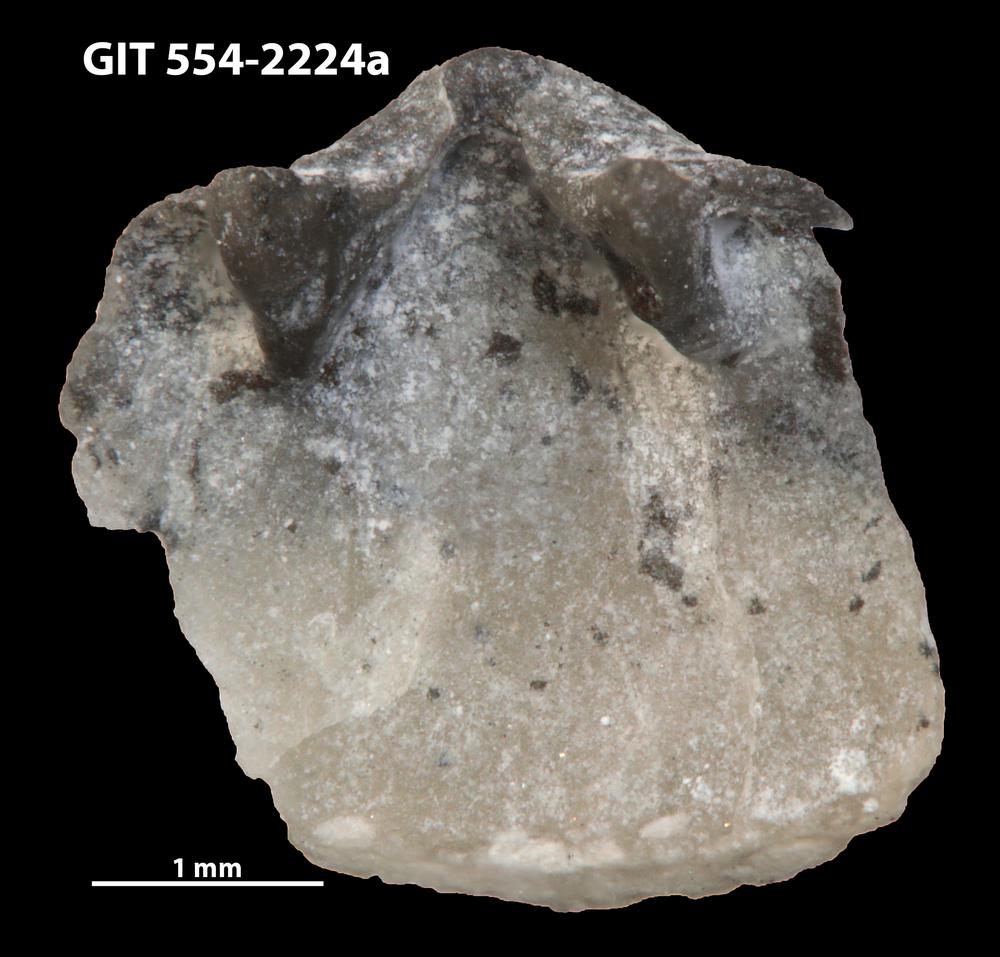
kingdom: Animalia
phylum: Brachiopoda
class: Rhynchonellata
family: Dalmanellidae
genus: Onniella
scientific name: Onniella trigona
